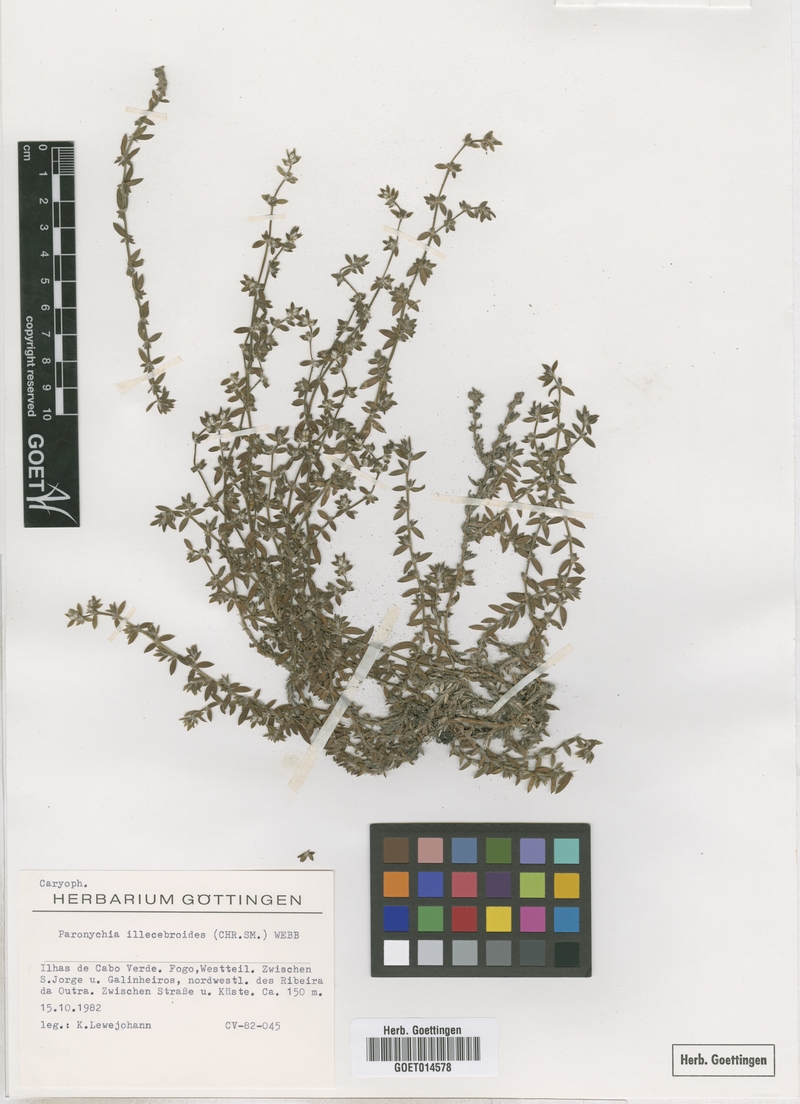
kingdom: Plantae
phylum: Tracheophyta
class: Magnoliopsida
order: Caryophyllales
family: Caryophyllaceae
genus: Paronychia
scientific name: Paronychia illecebroides
